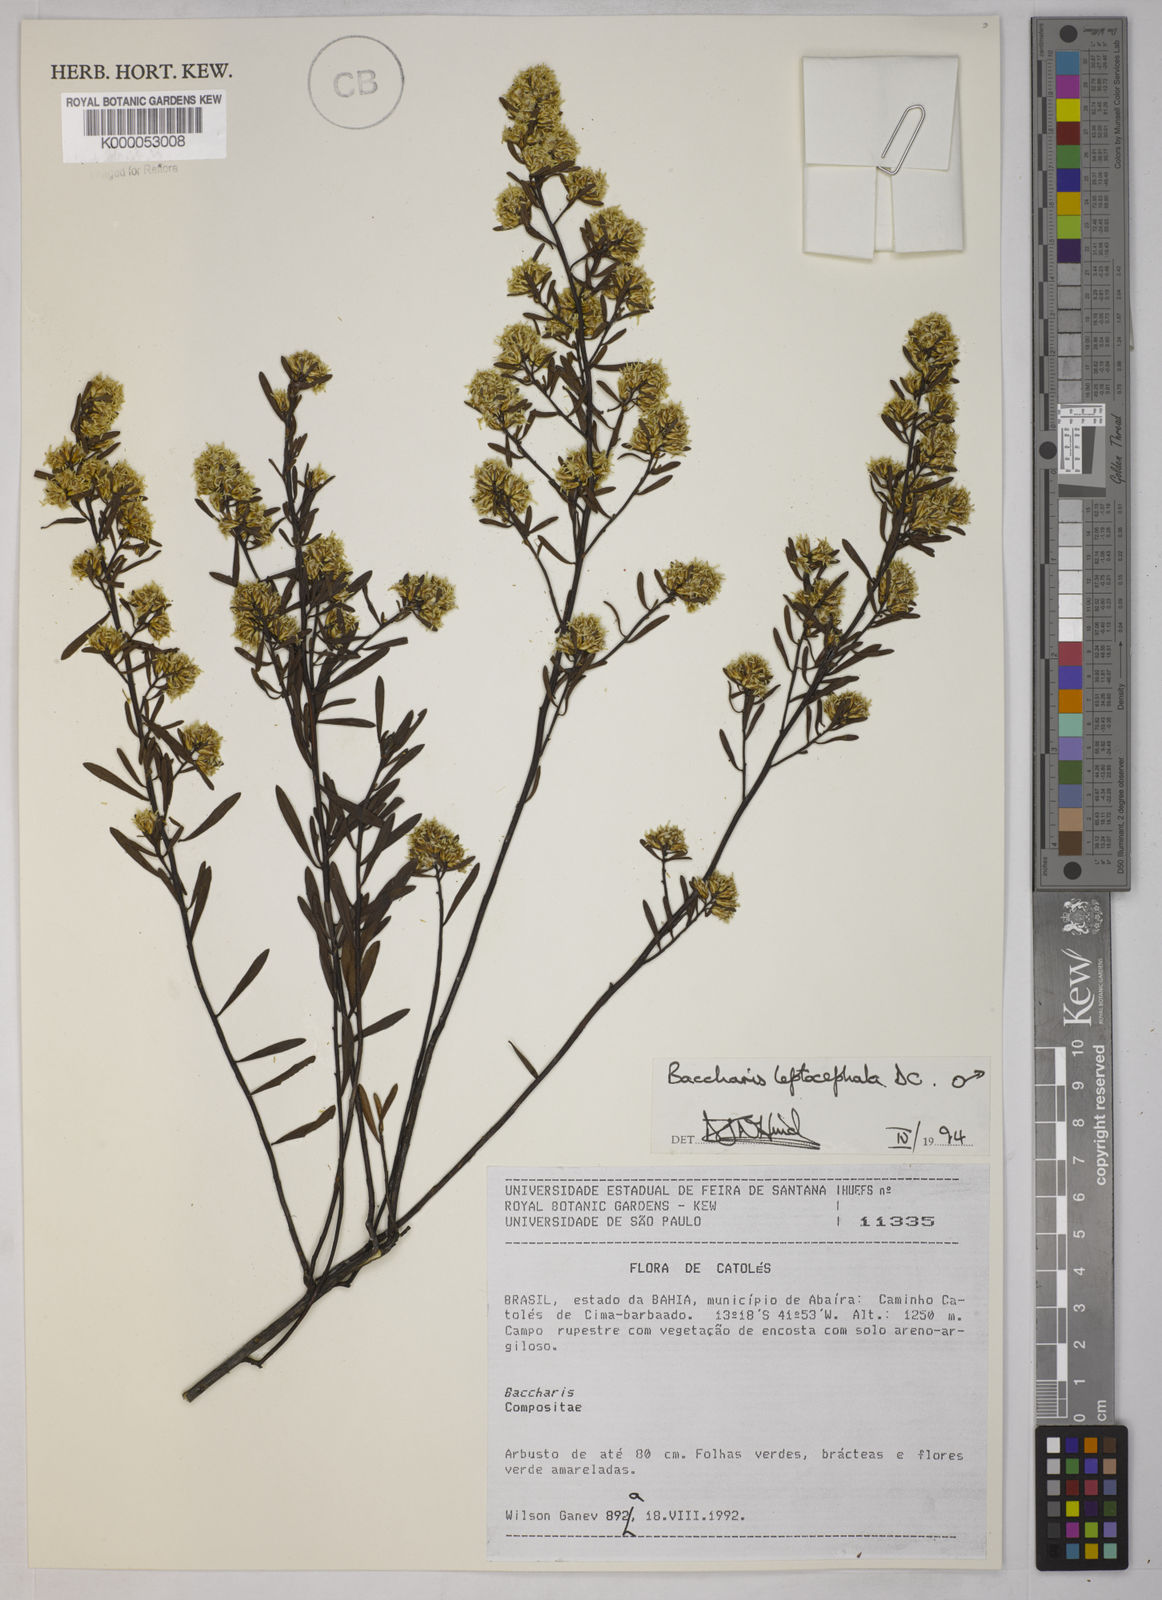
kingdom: Plantae
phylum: Tracheophyta
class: Magnoliopsida
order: Asterales
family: Asteraceae
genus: Baccharis
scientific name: Baccharis leptocephala
